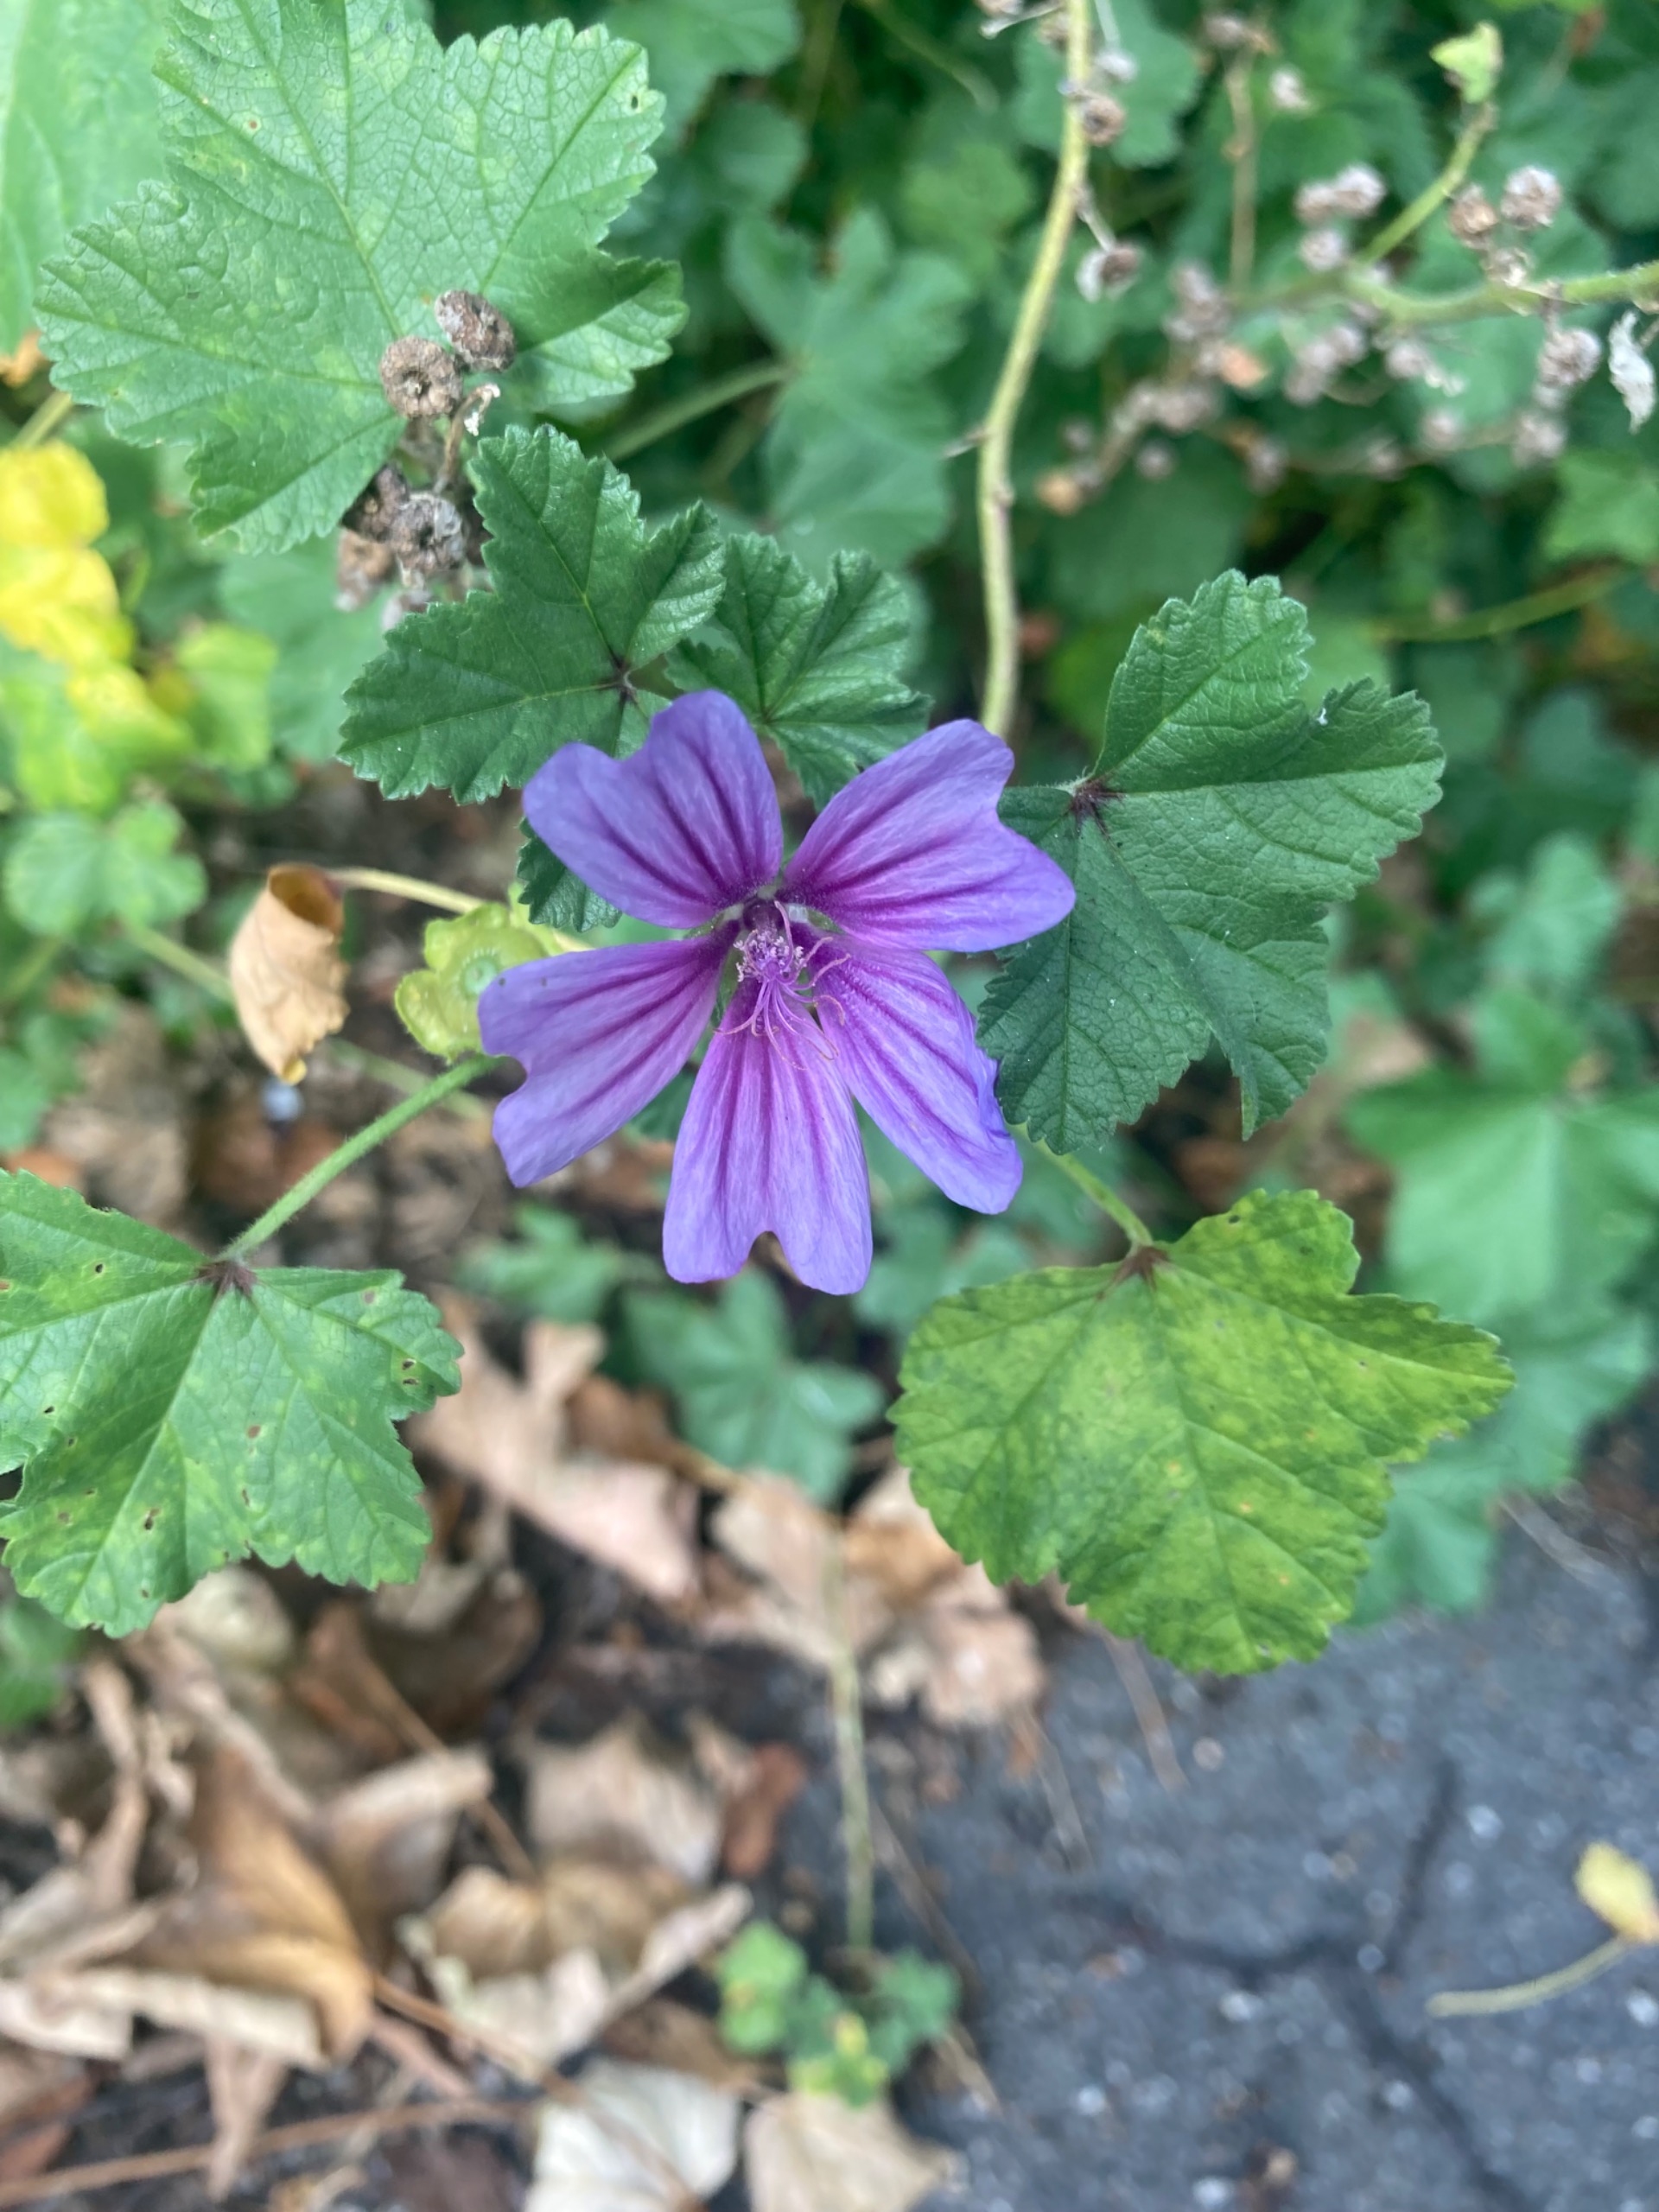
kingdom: Plantae
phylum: Tracheophyta
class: Magnoliopsida
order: Malvales
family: Malvaceae
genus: Malva
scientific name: Malva sylvestris
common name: Almindelig katost
